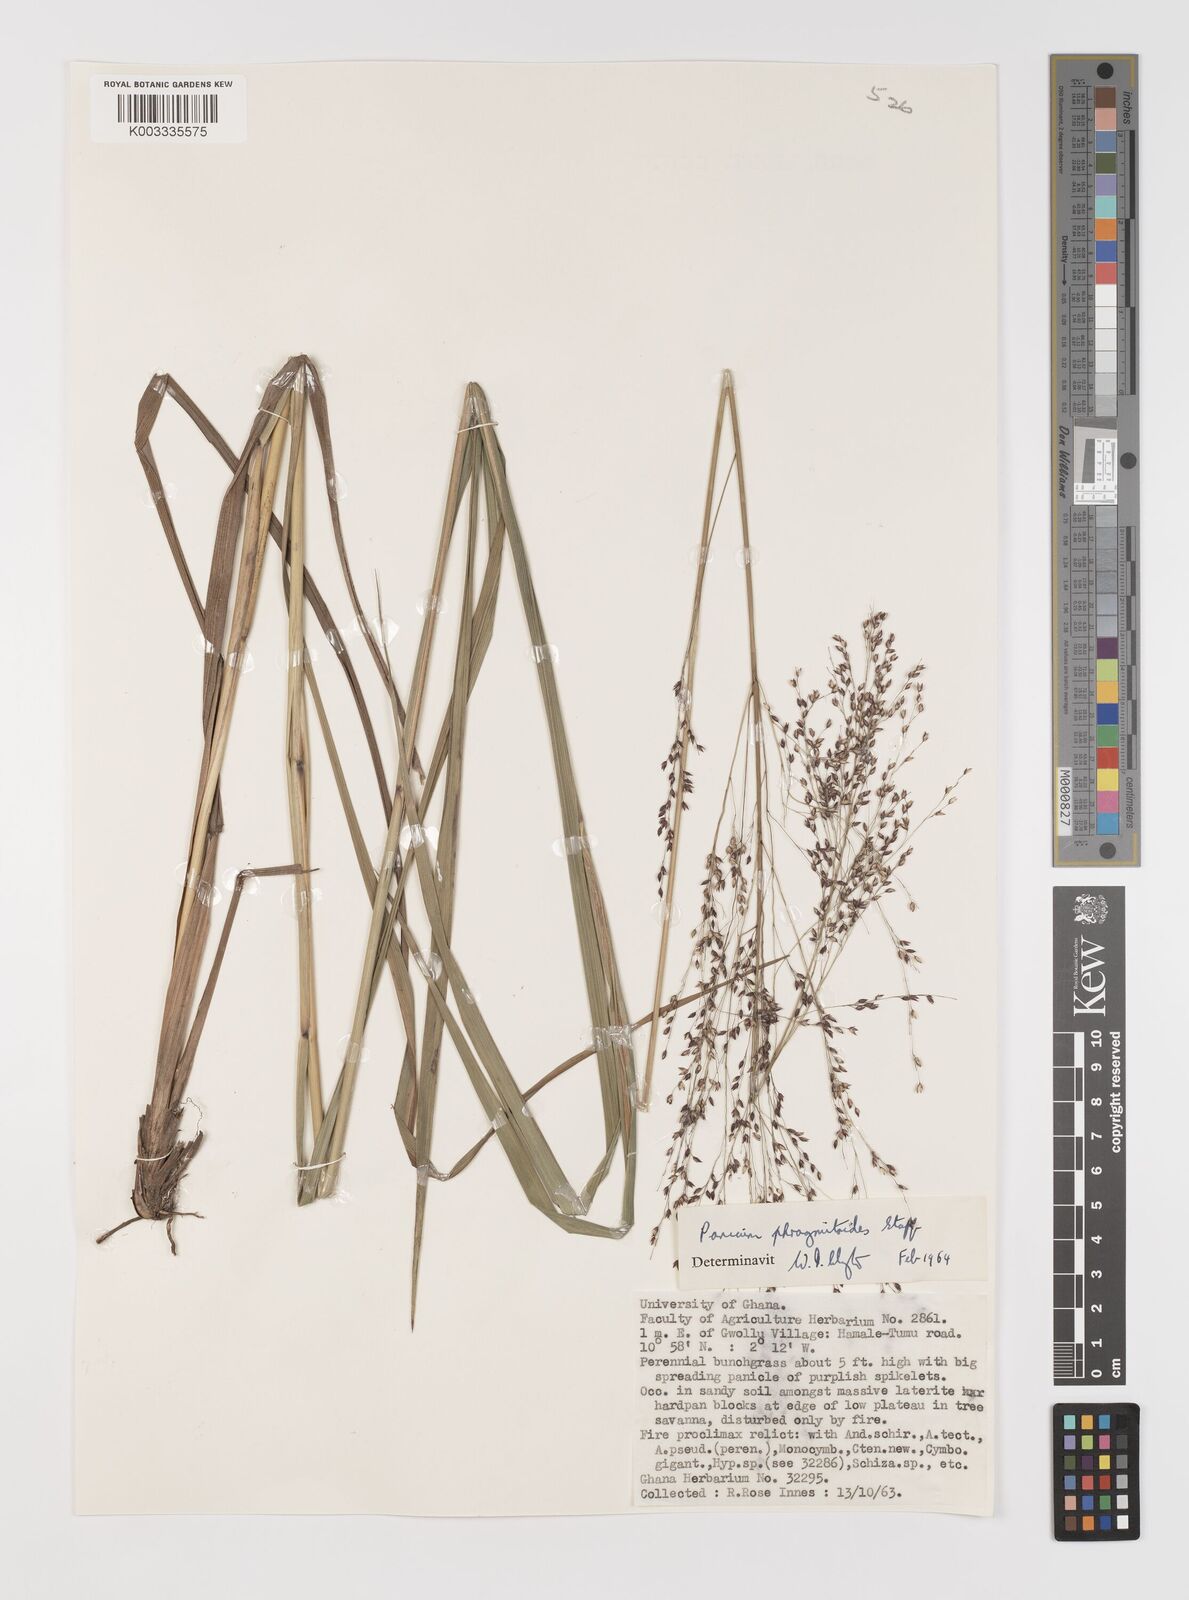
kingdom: Plantae
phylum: Tracheophyta
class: Liliopsida
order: Poales
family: Poaceae
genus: Panicum
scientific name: Panicum phragmitoides
